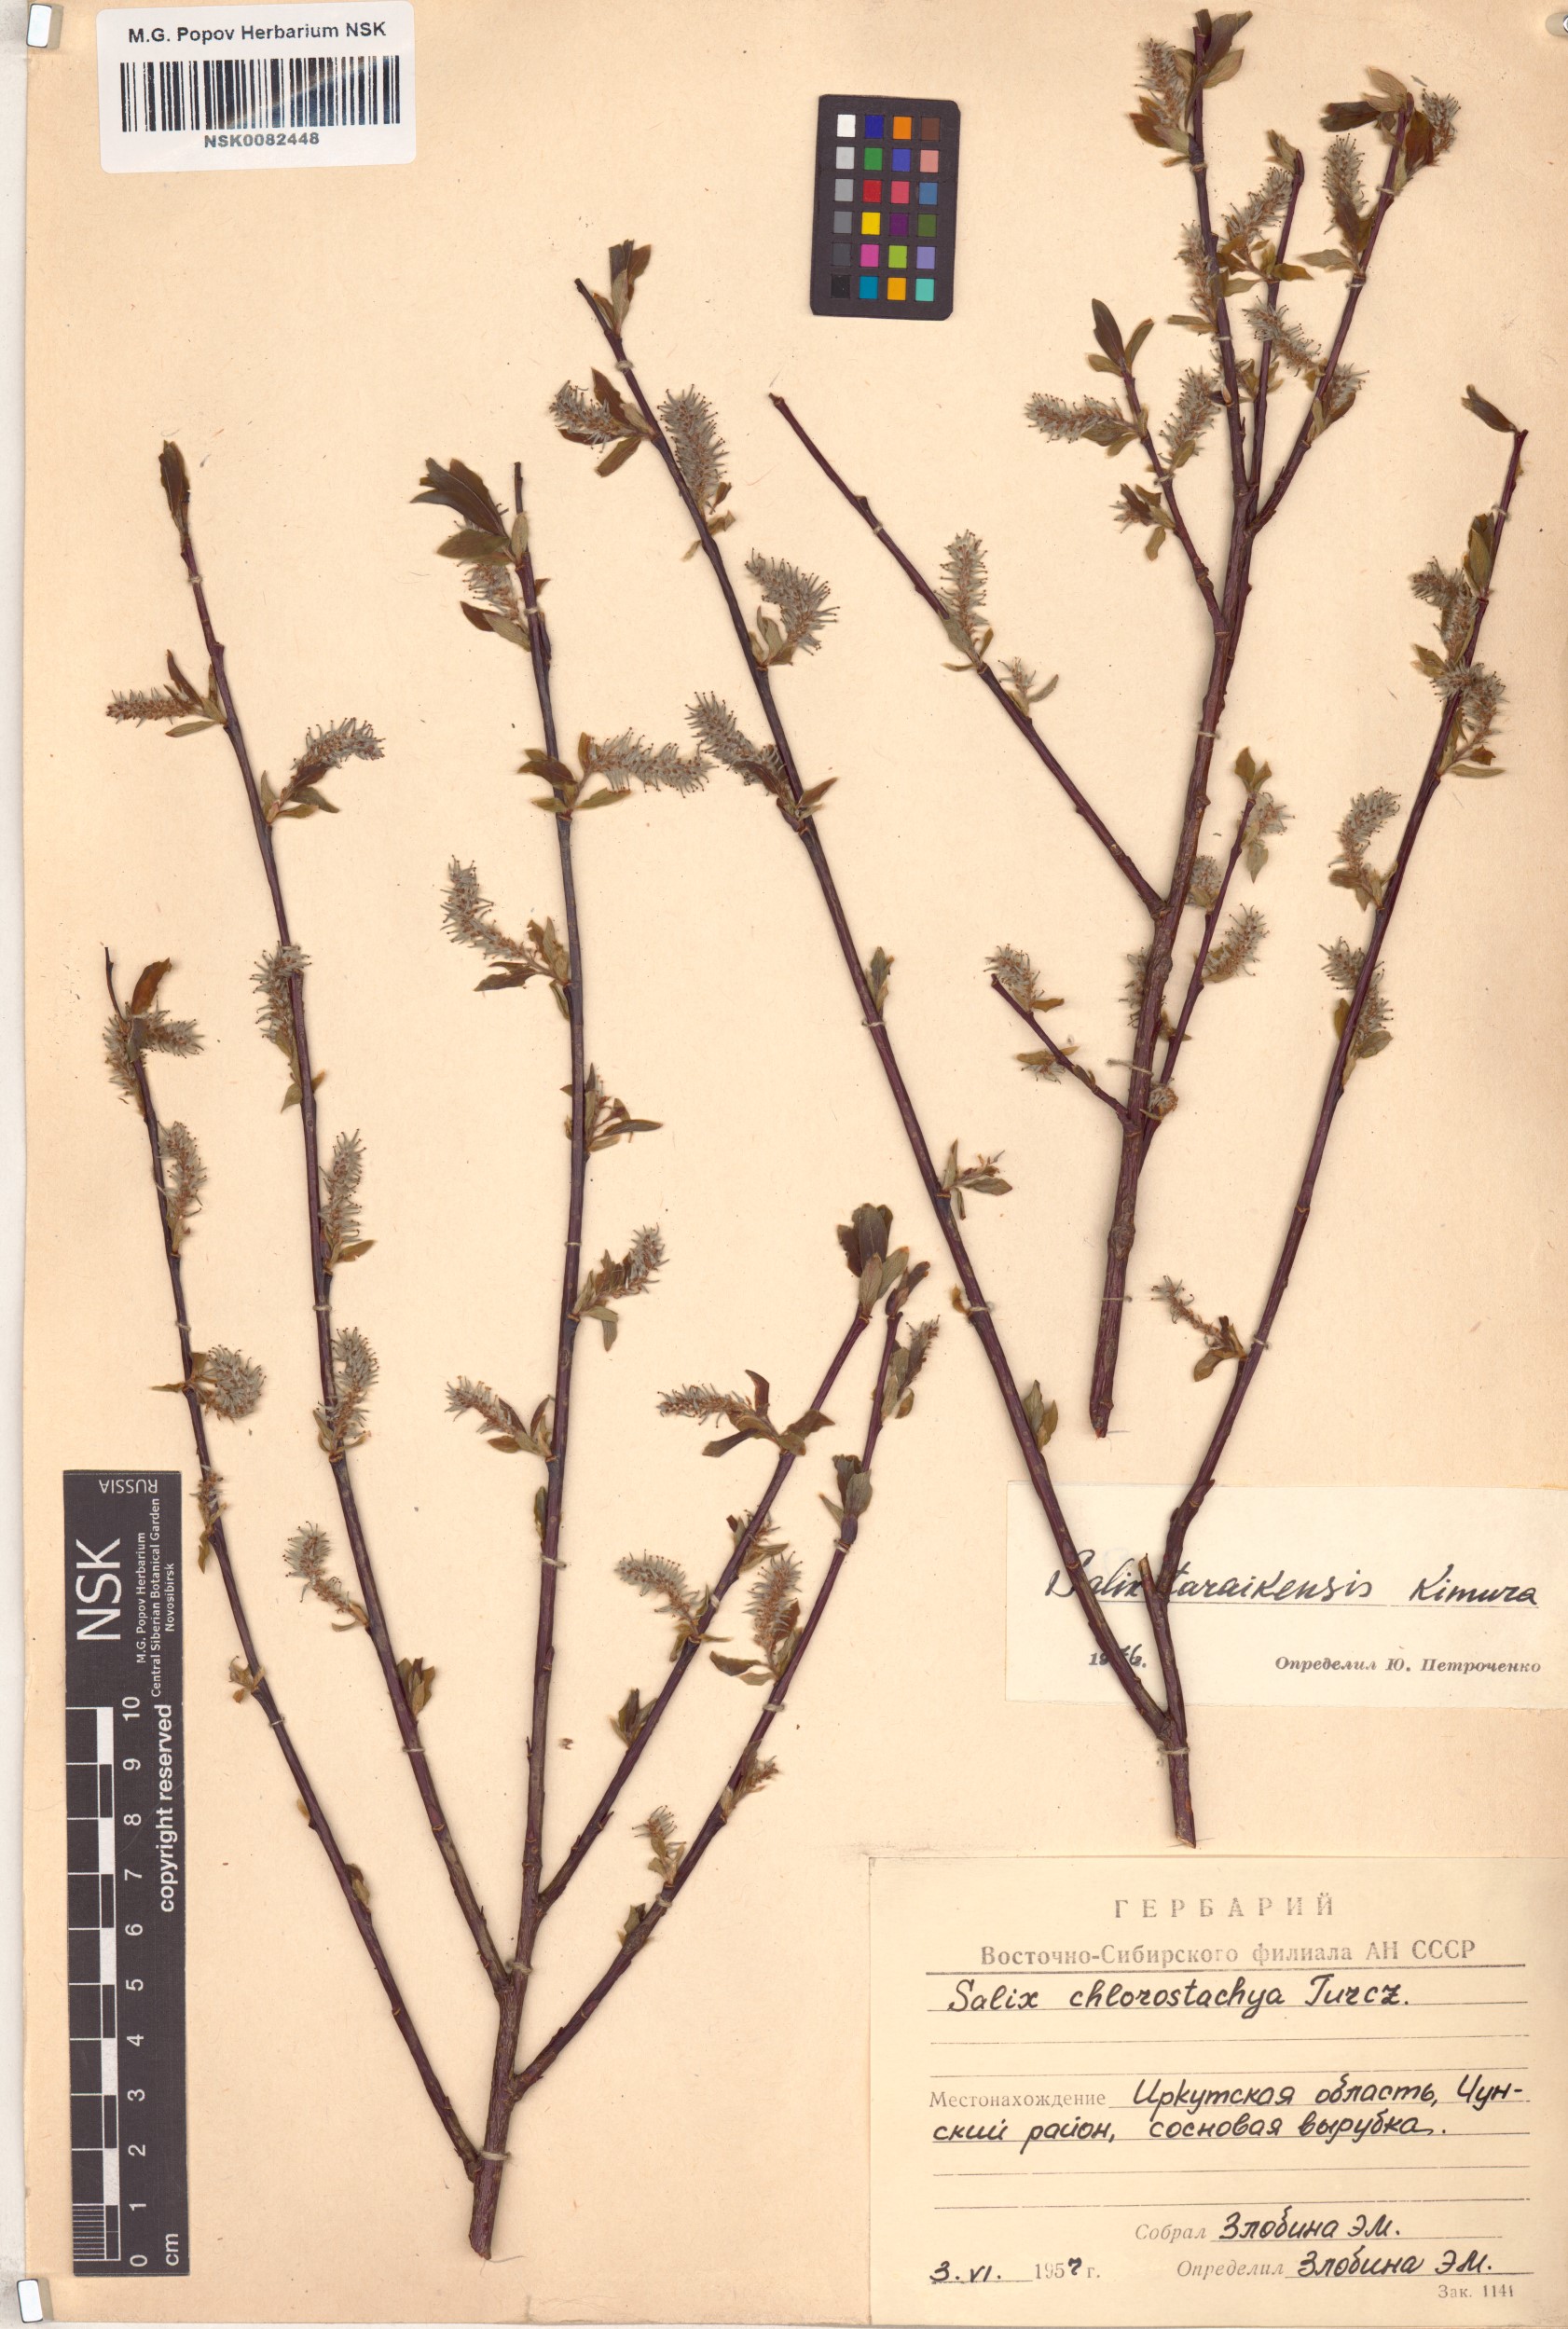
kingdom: Plantae
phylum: Tracheophyta
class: Magnoliopsida
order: Malpighiales
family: Salicaceae
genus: Salix
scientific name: Salix taraikensis
